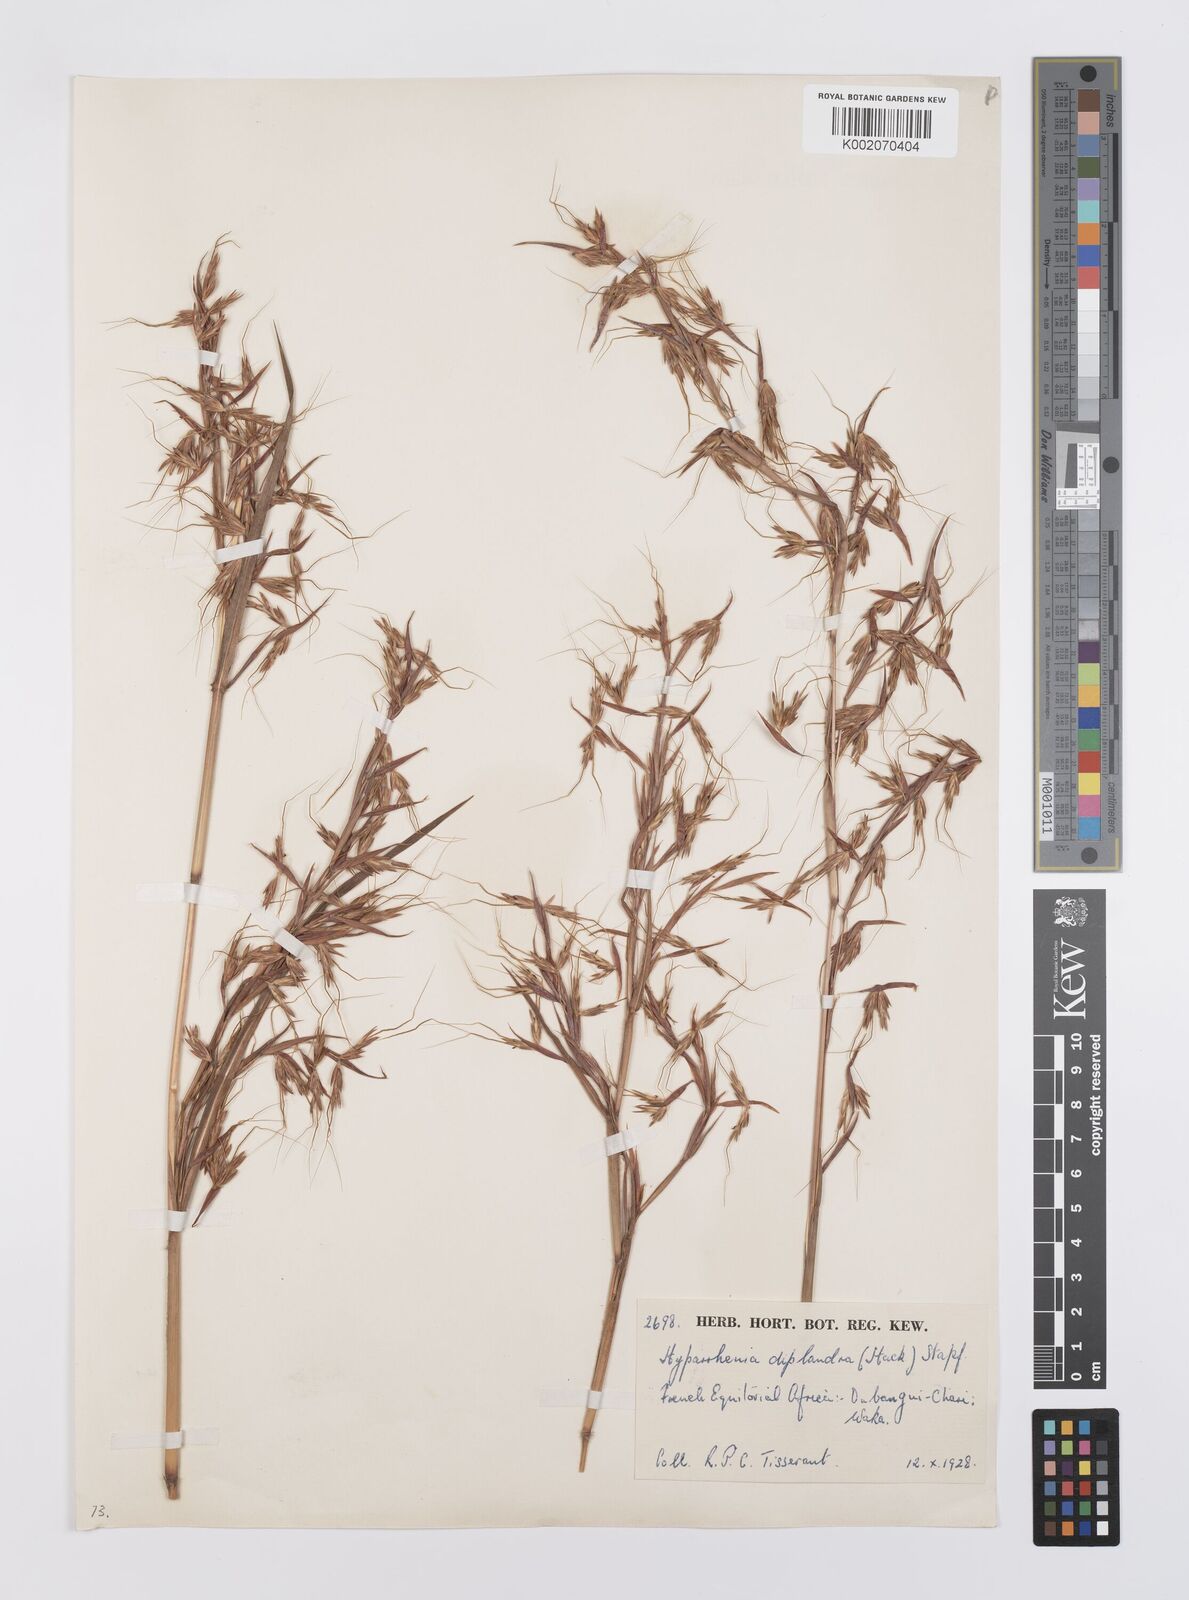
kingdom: Plantae
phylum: Tracheophyta
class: Liliopsida
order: Poales
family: Poaceae
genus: Hyparrhenia
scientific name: Hyparrhenia diplandra
